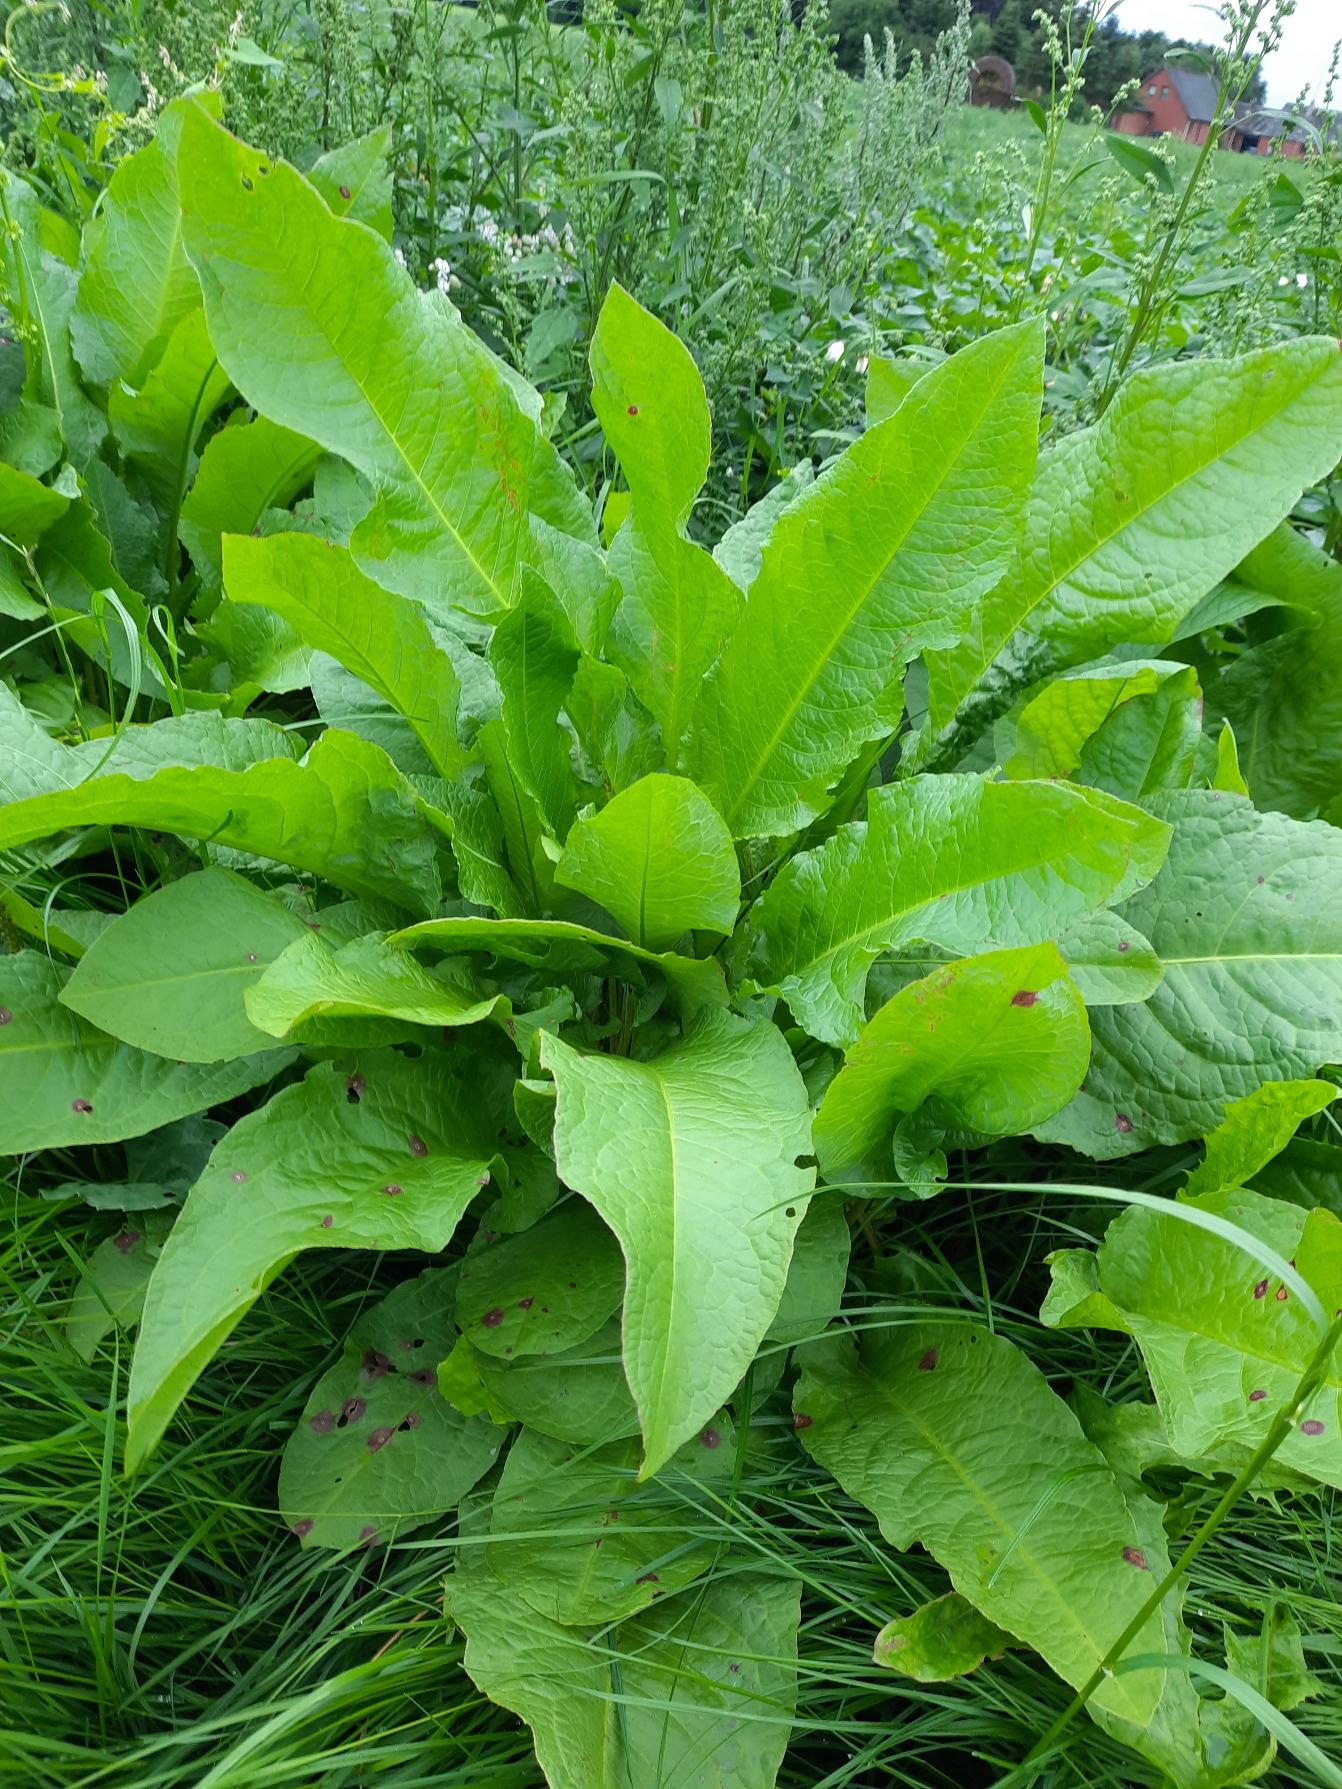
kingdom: Plantae
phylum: Tracheophyta
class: Magnoliopsida
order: Caryophyllales
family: Polygonaceae
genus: Rumex
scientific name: Rumex obtusifolius
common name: Butbladet skræppe
